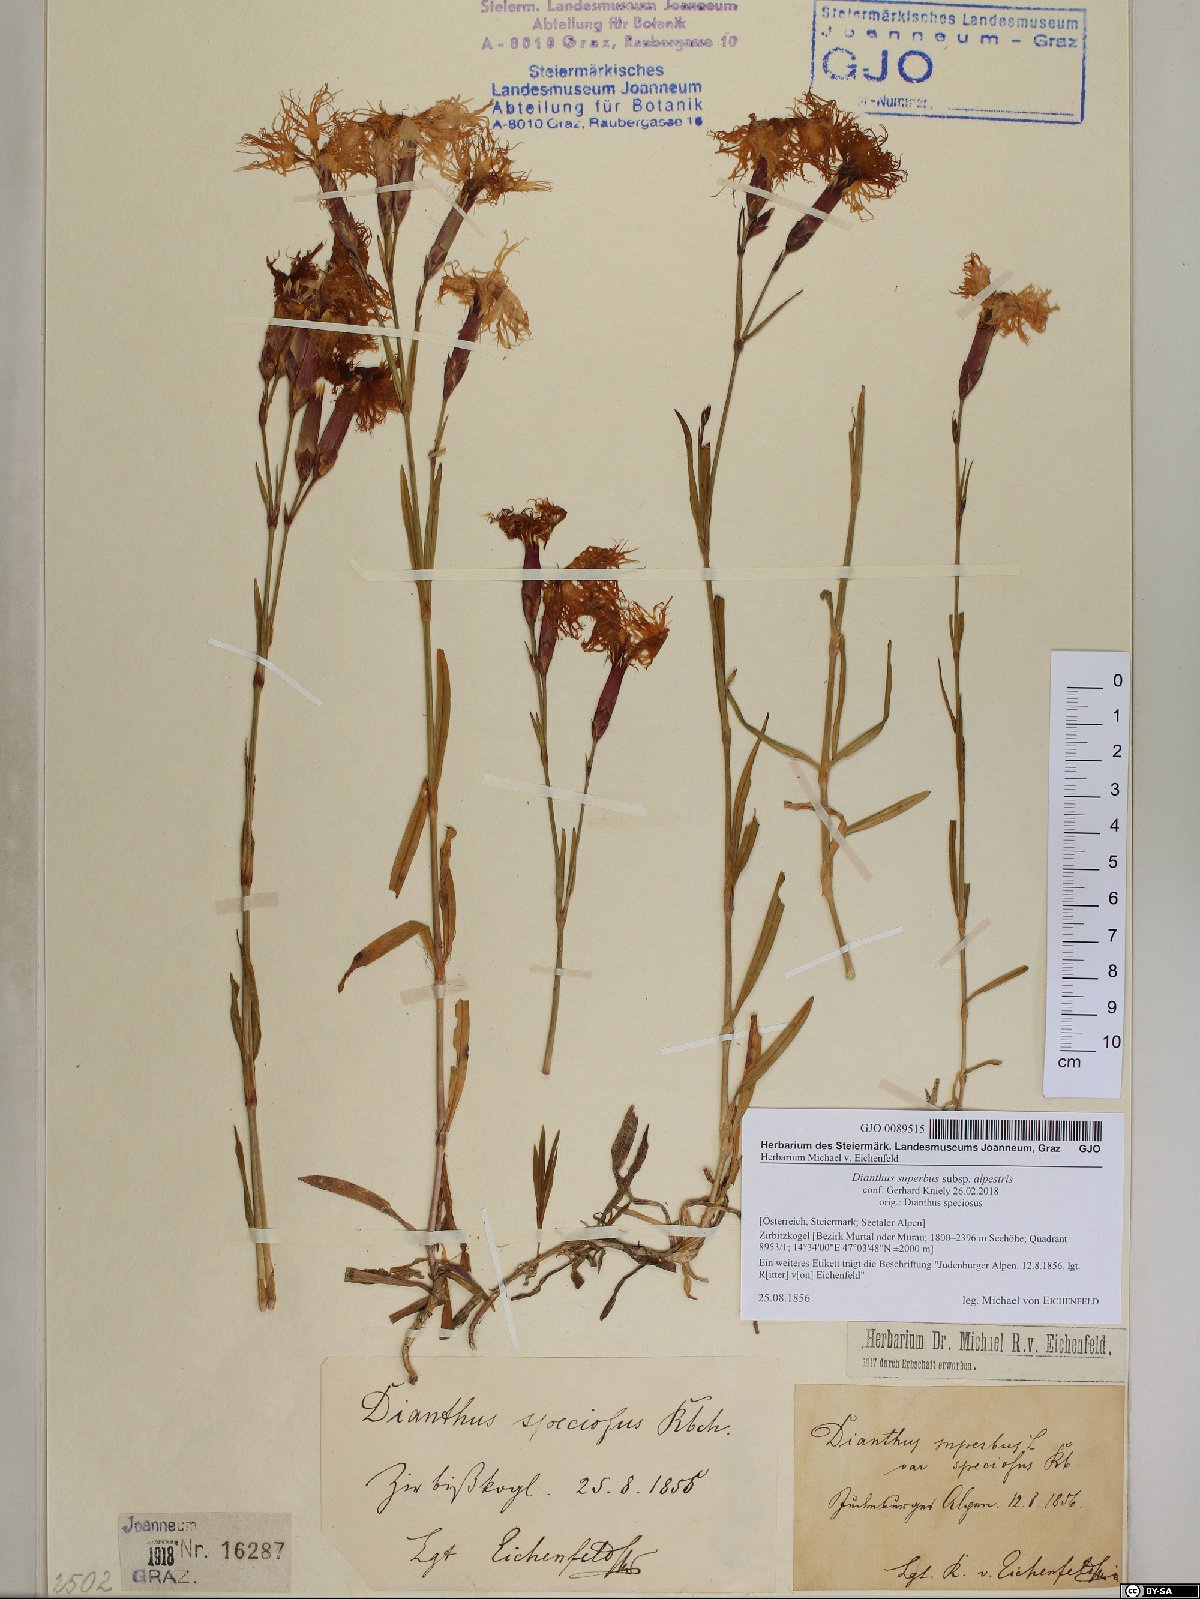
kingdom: Plantae
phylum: Tracheophyta
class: Magnoliopsida
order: Caryophyllales
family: Caryophyllaceae
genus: Dianthus
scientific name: Dianthus superbus
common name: Fringed pink
